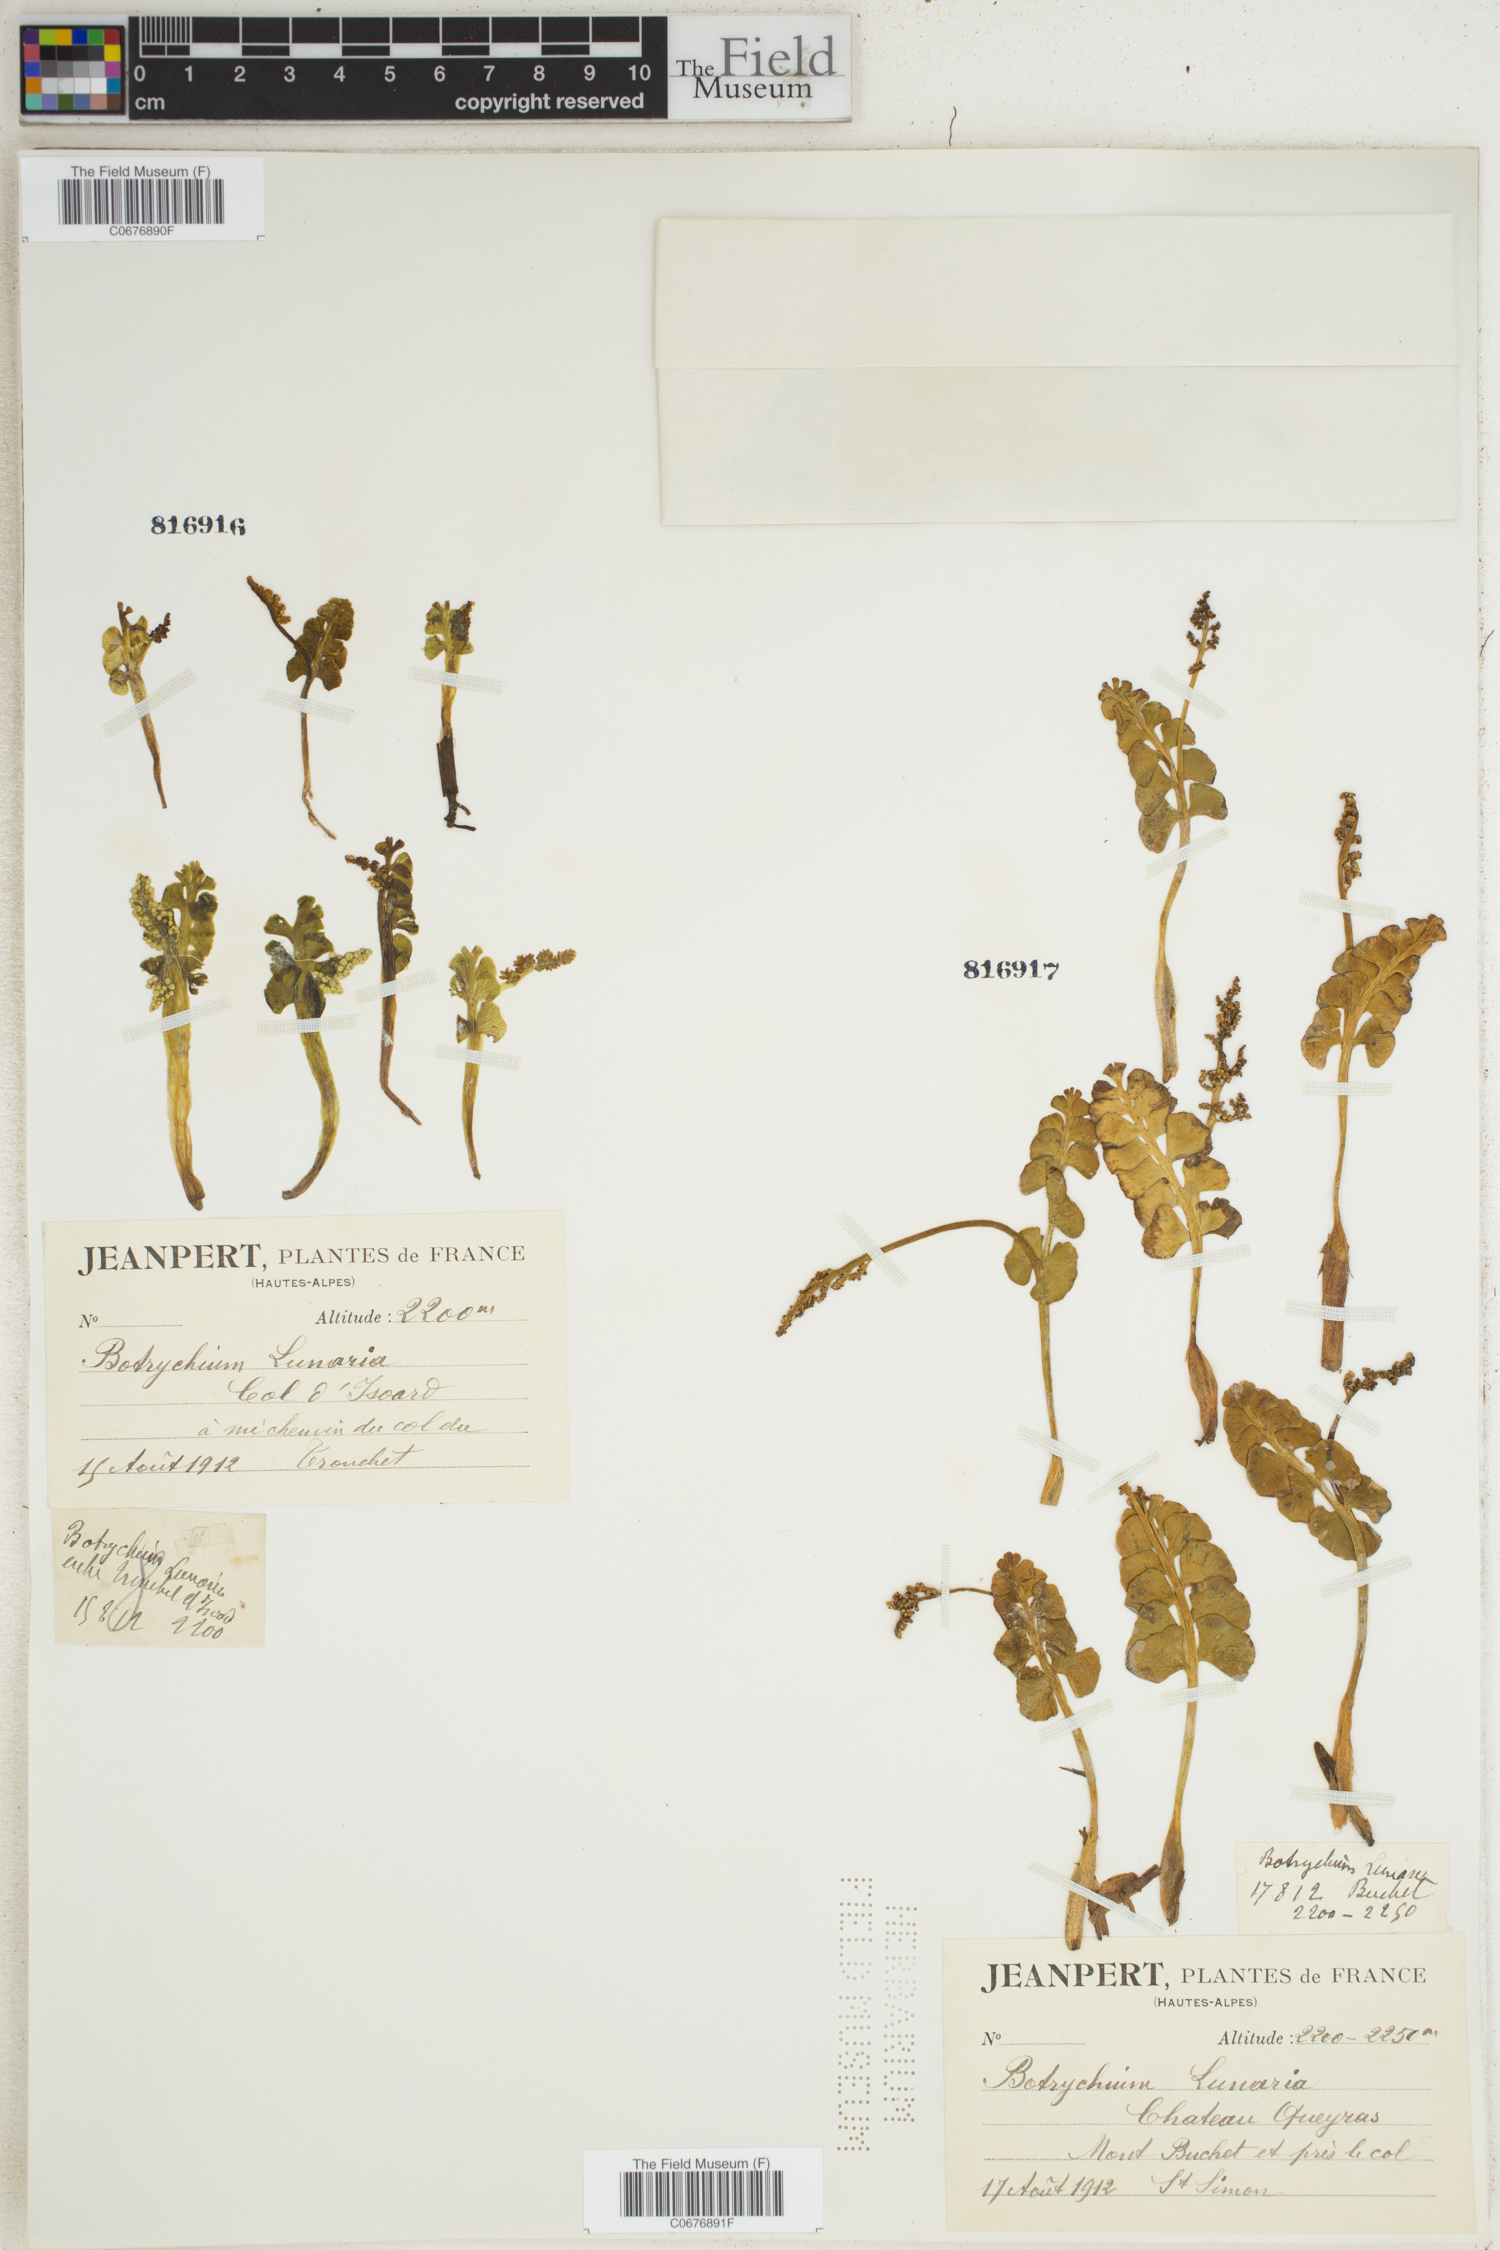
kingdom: Plantae
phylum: Tracheophyta
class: Polypodiopsida
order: Ophioglossales
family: Ophioglossaceae
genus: Botrychium
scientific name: Botrychium lunaria
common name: Moonwort
